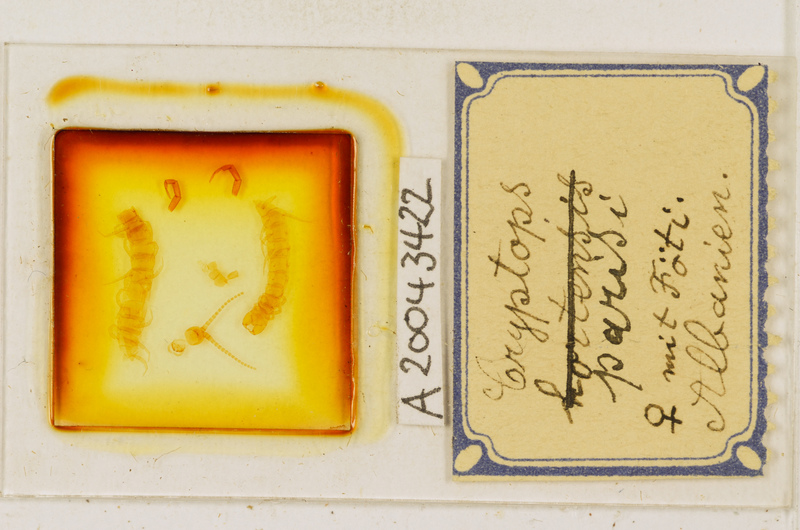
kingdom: Animalia
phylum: Arthropoda
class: Chilopoda
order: Scolopendromorpha
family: Cryptopidae
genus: Cryptops
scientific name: Cryptops parisi
